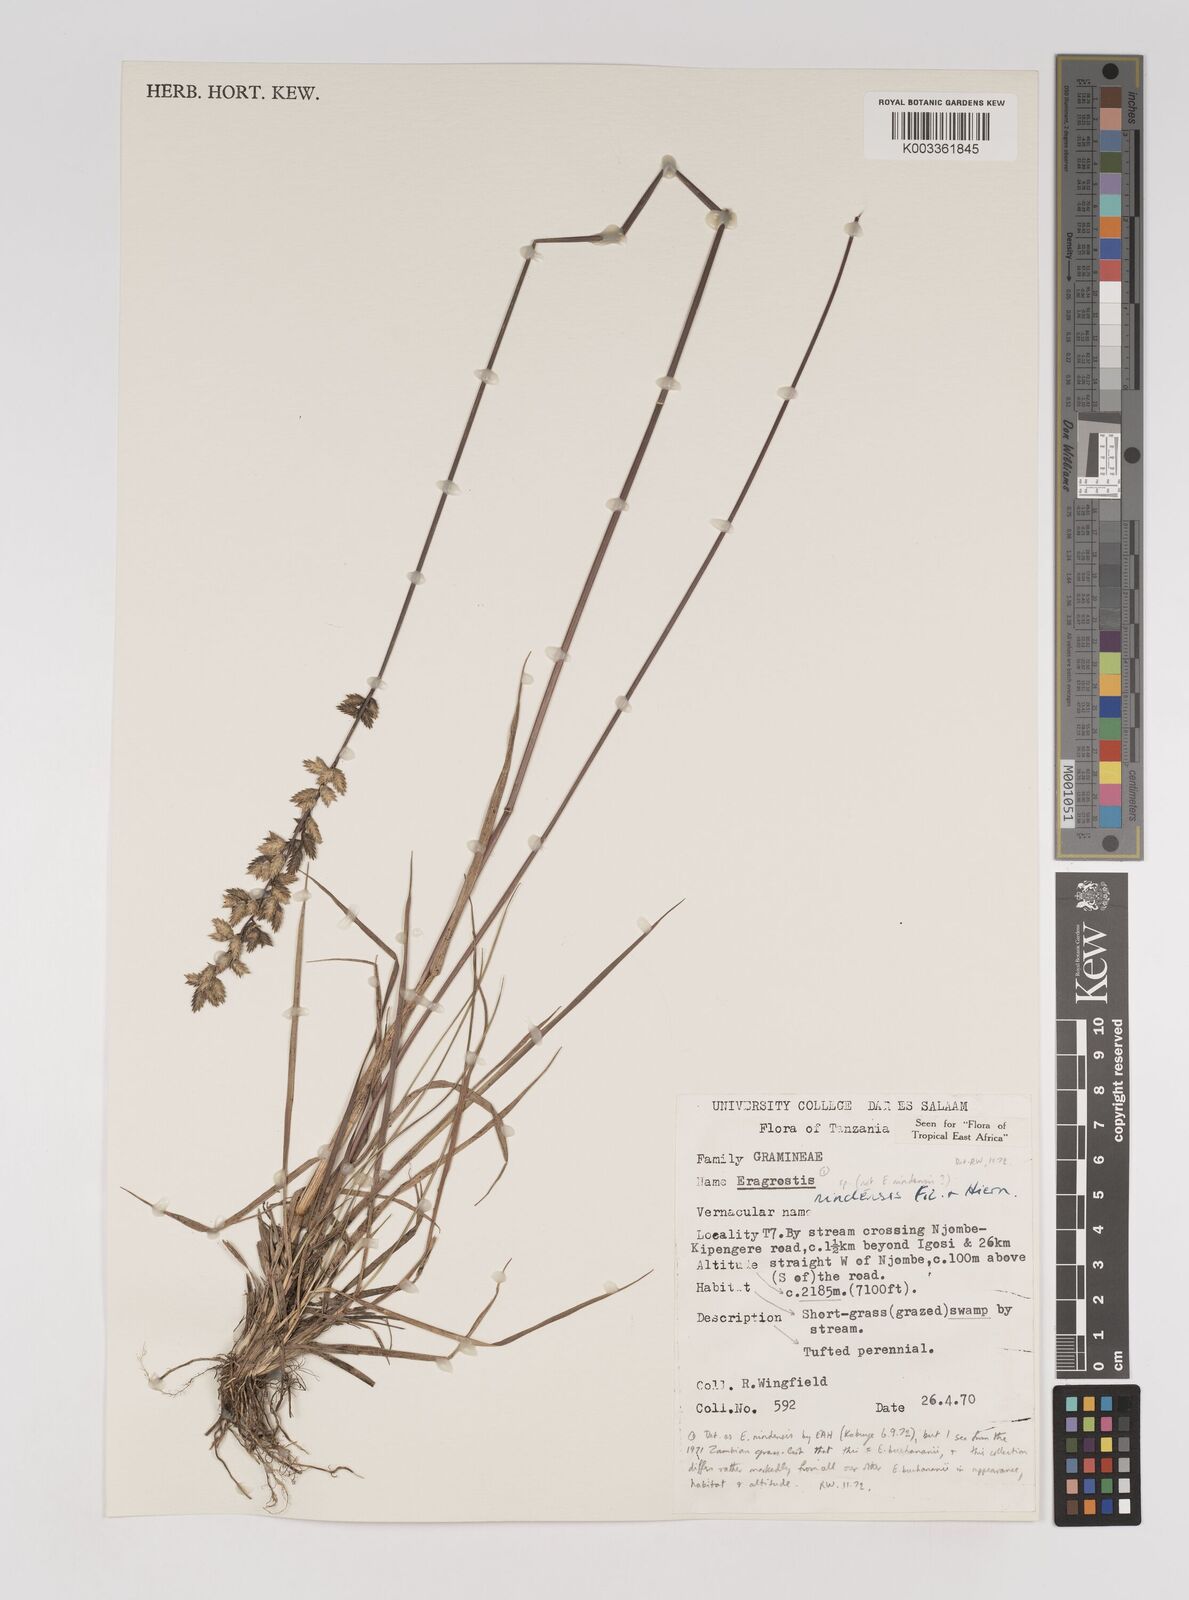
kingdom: Plantae
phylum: Tracheophyta
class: Liliopsida
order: Poales
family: Poaceae
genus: Eragrostis
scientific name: Eragrostis nindensis
